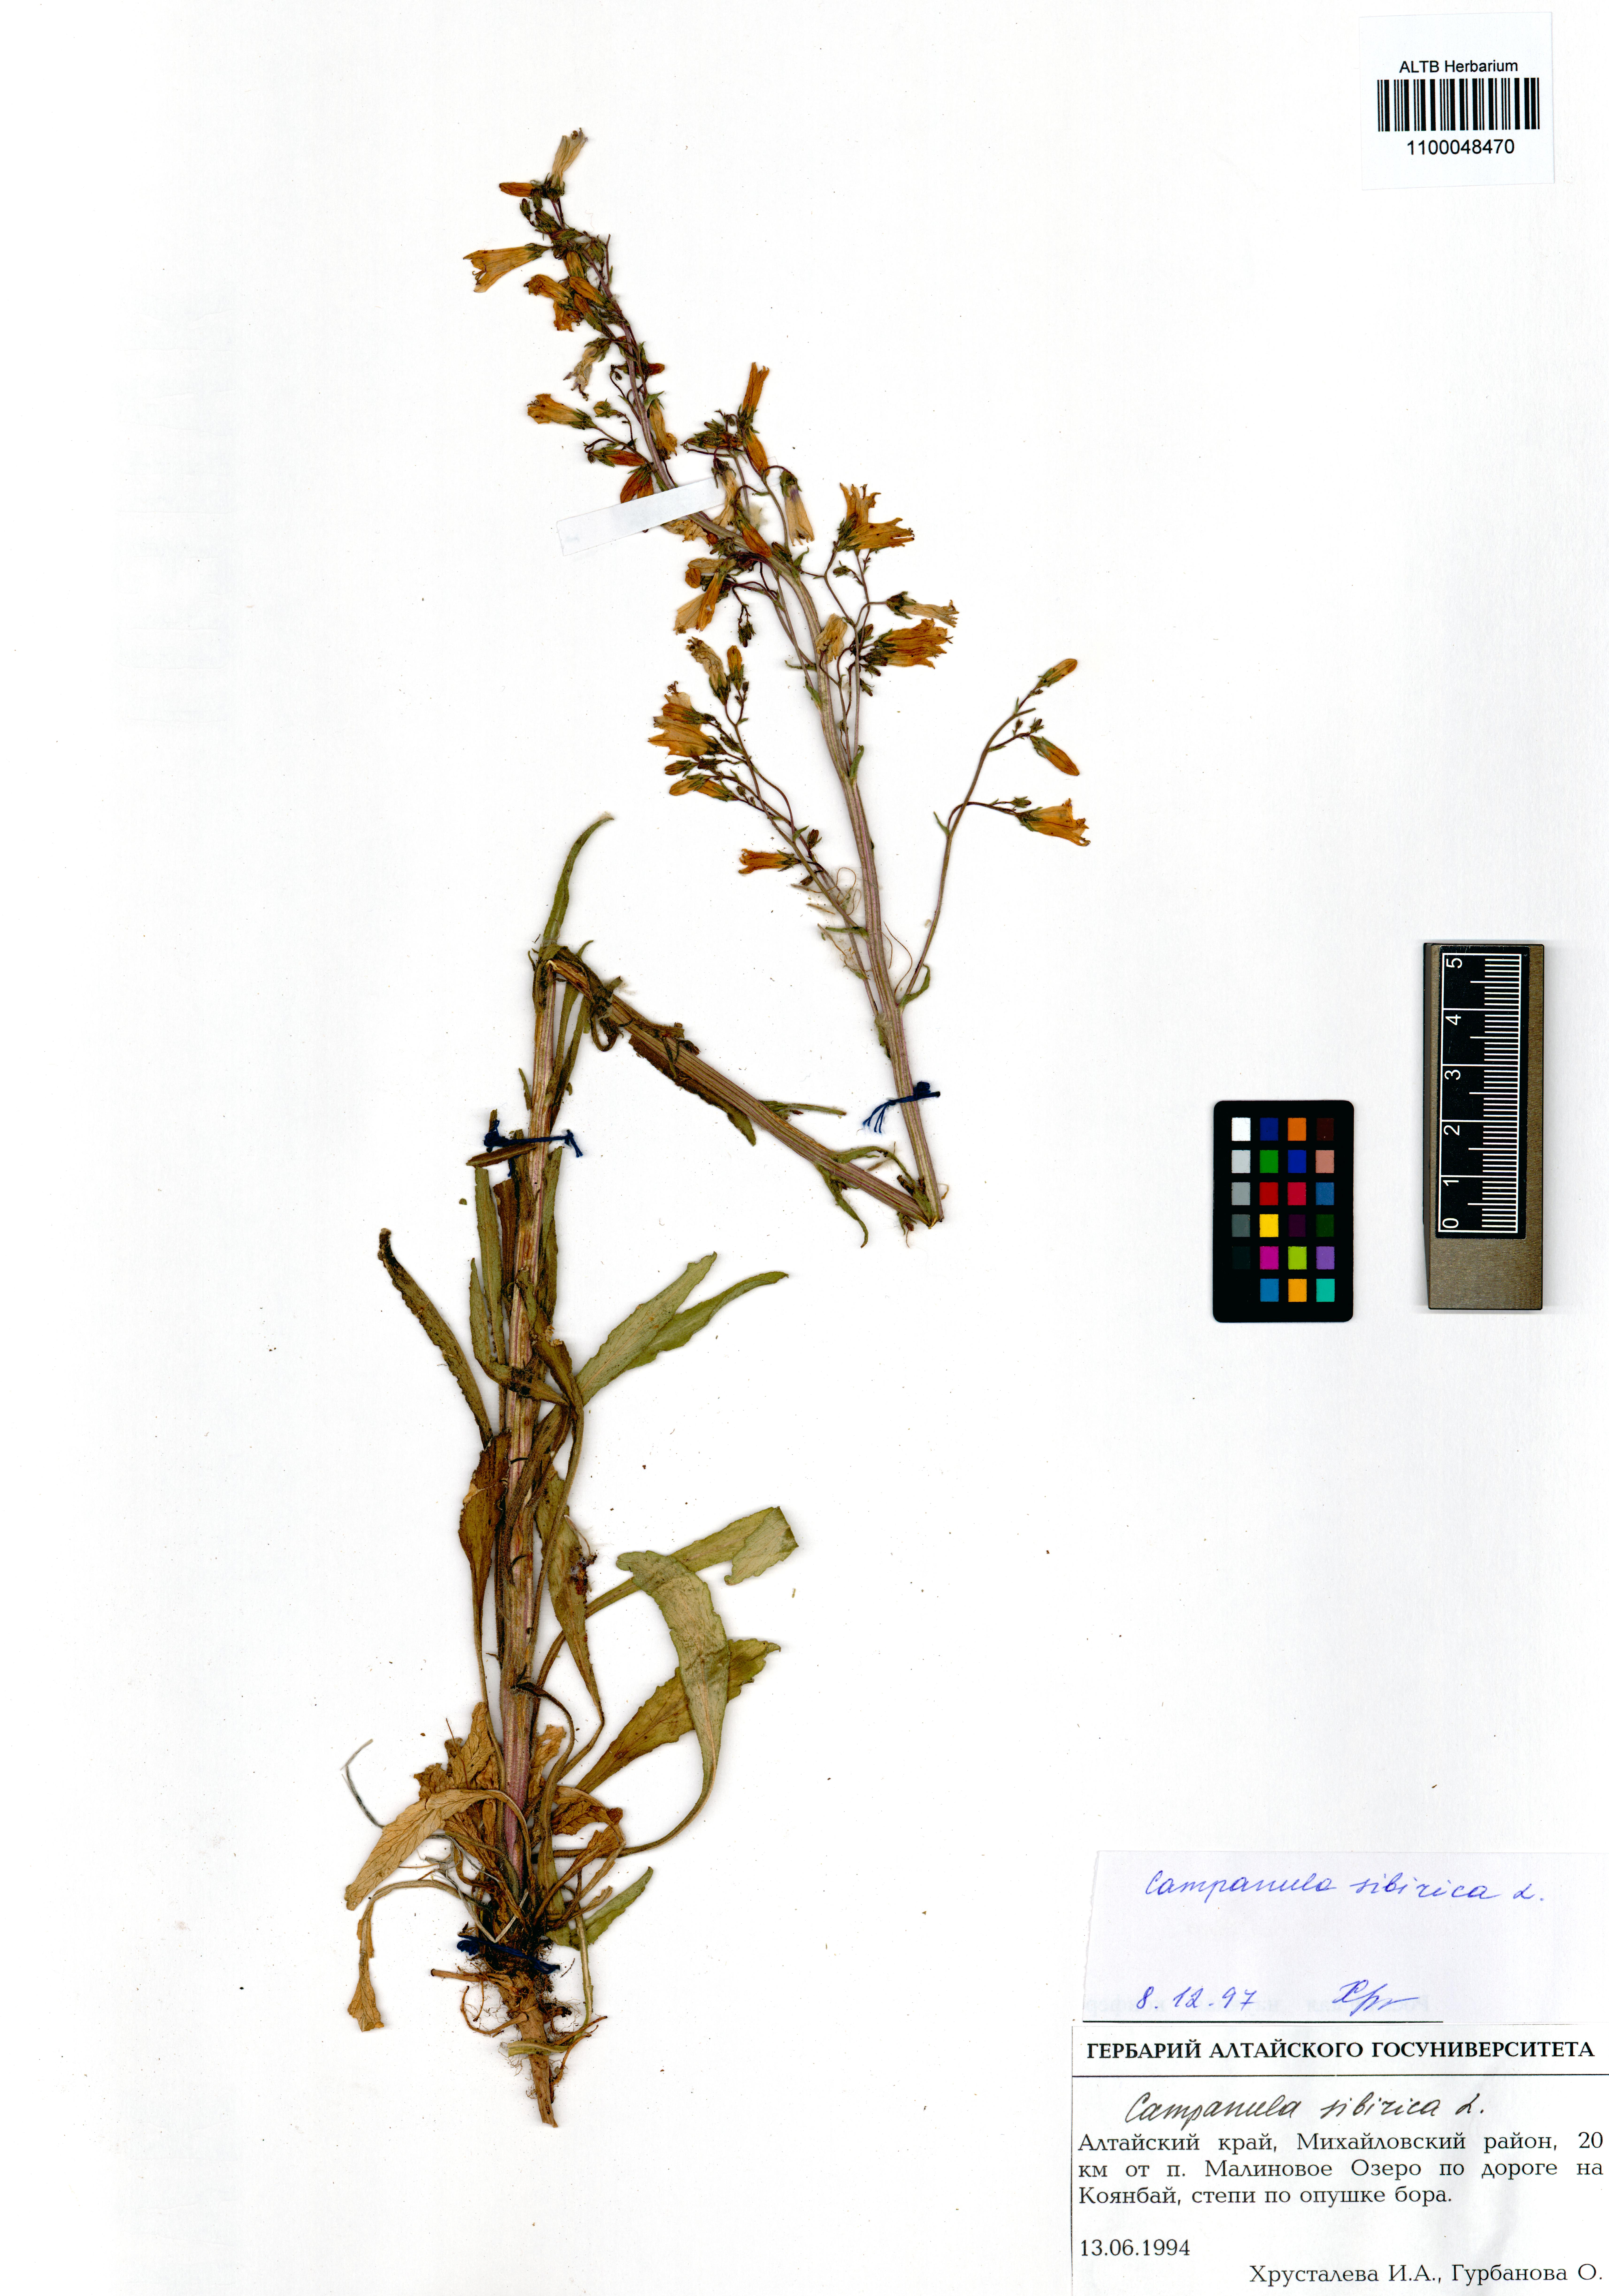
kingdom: Plantae
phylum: Tracheophyta
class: Magnoliopsida
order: Asterales
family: Campanulaceae
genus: Campanula
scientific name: Campanula sibirica
